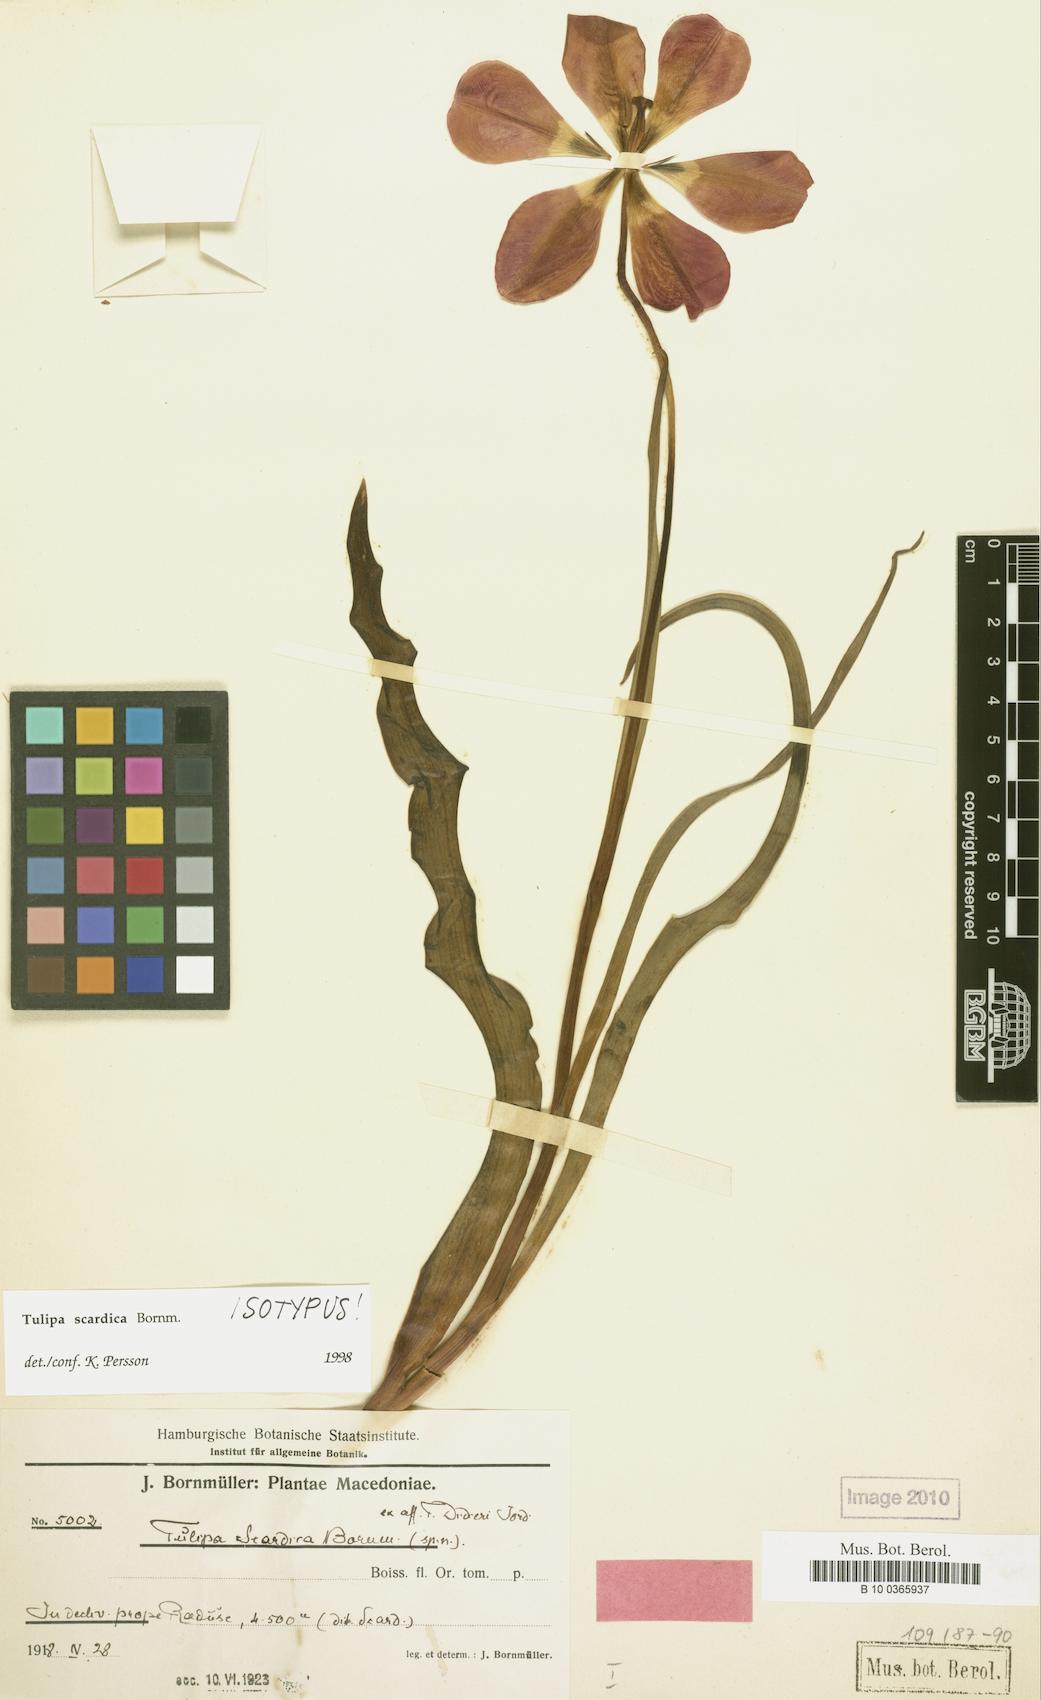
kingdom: Plantae
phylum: Tracheophyta
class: Liliopsida
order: Liliales
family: Liliaceae
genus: Tulipa
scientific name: Tulipa scardica
